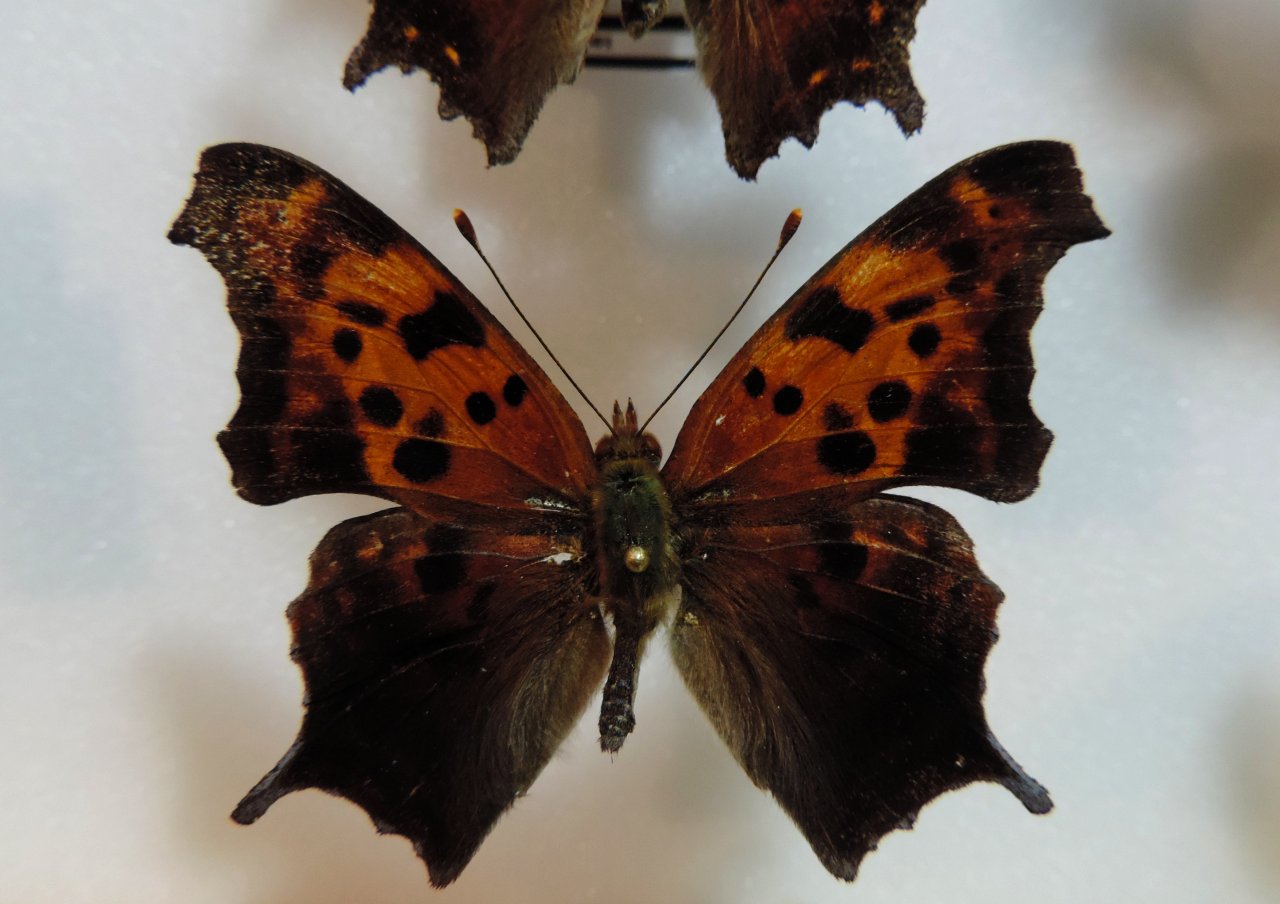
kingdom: Animalia
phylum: Arthropoda
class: Insecta
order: Lepidoptera
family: Nymphalidae
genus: Polygonia
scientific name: Polygonia interrogationis
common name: Question Mark
